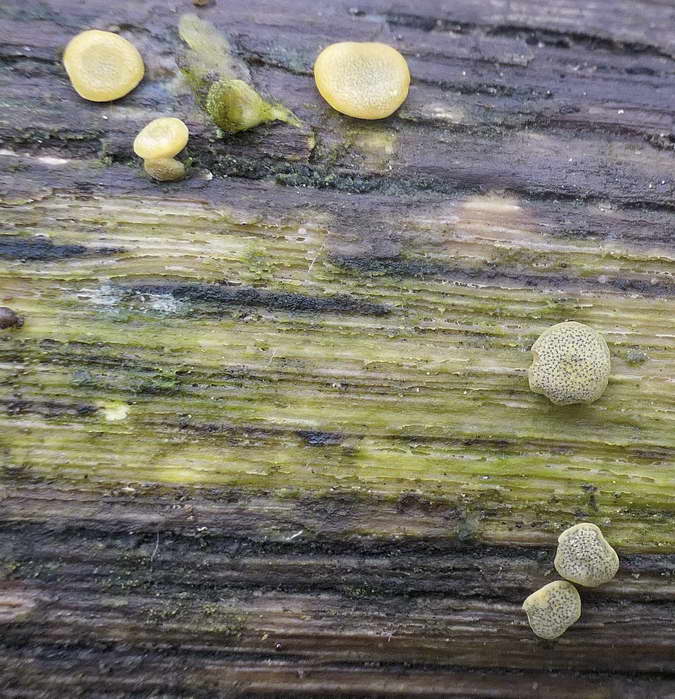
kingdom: Fungi
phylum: Ascomycota
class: Sordariomycetes
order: Hypocreales
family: Hypocreaceae
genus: Trichoderma
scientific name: Trichoderma aureoviride
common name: æggegul kødkerne
